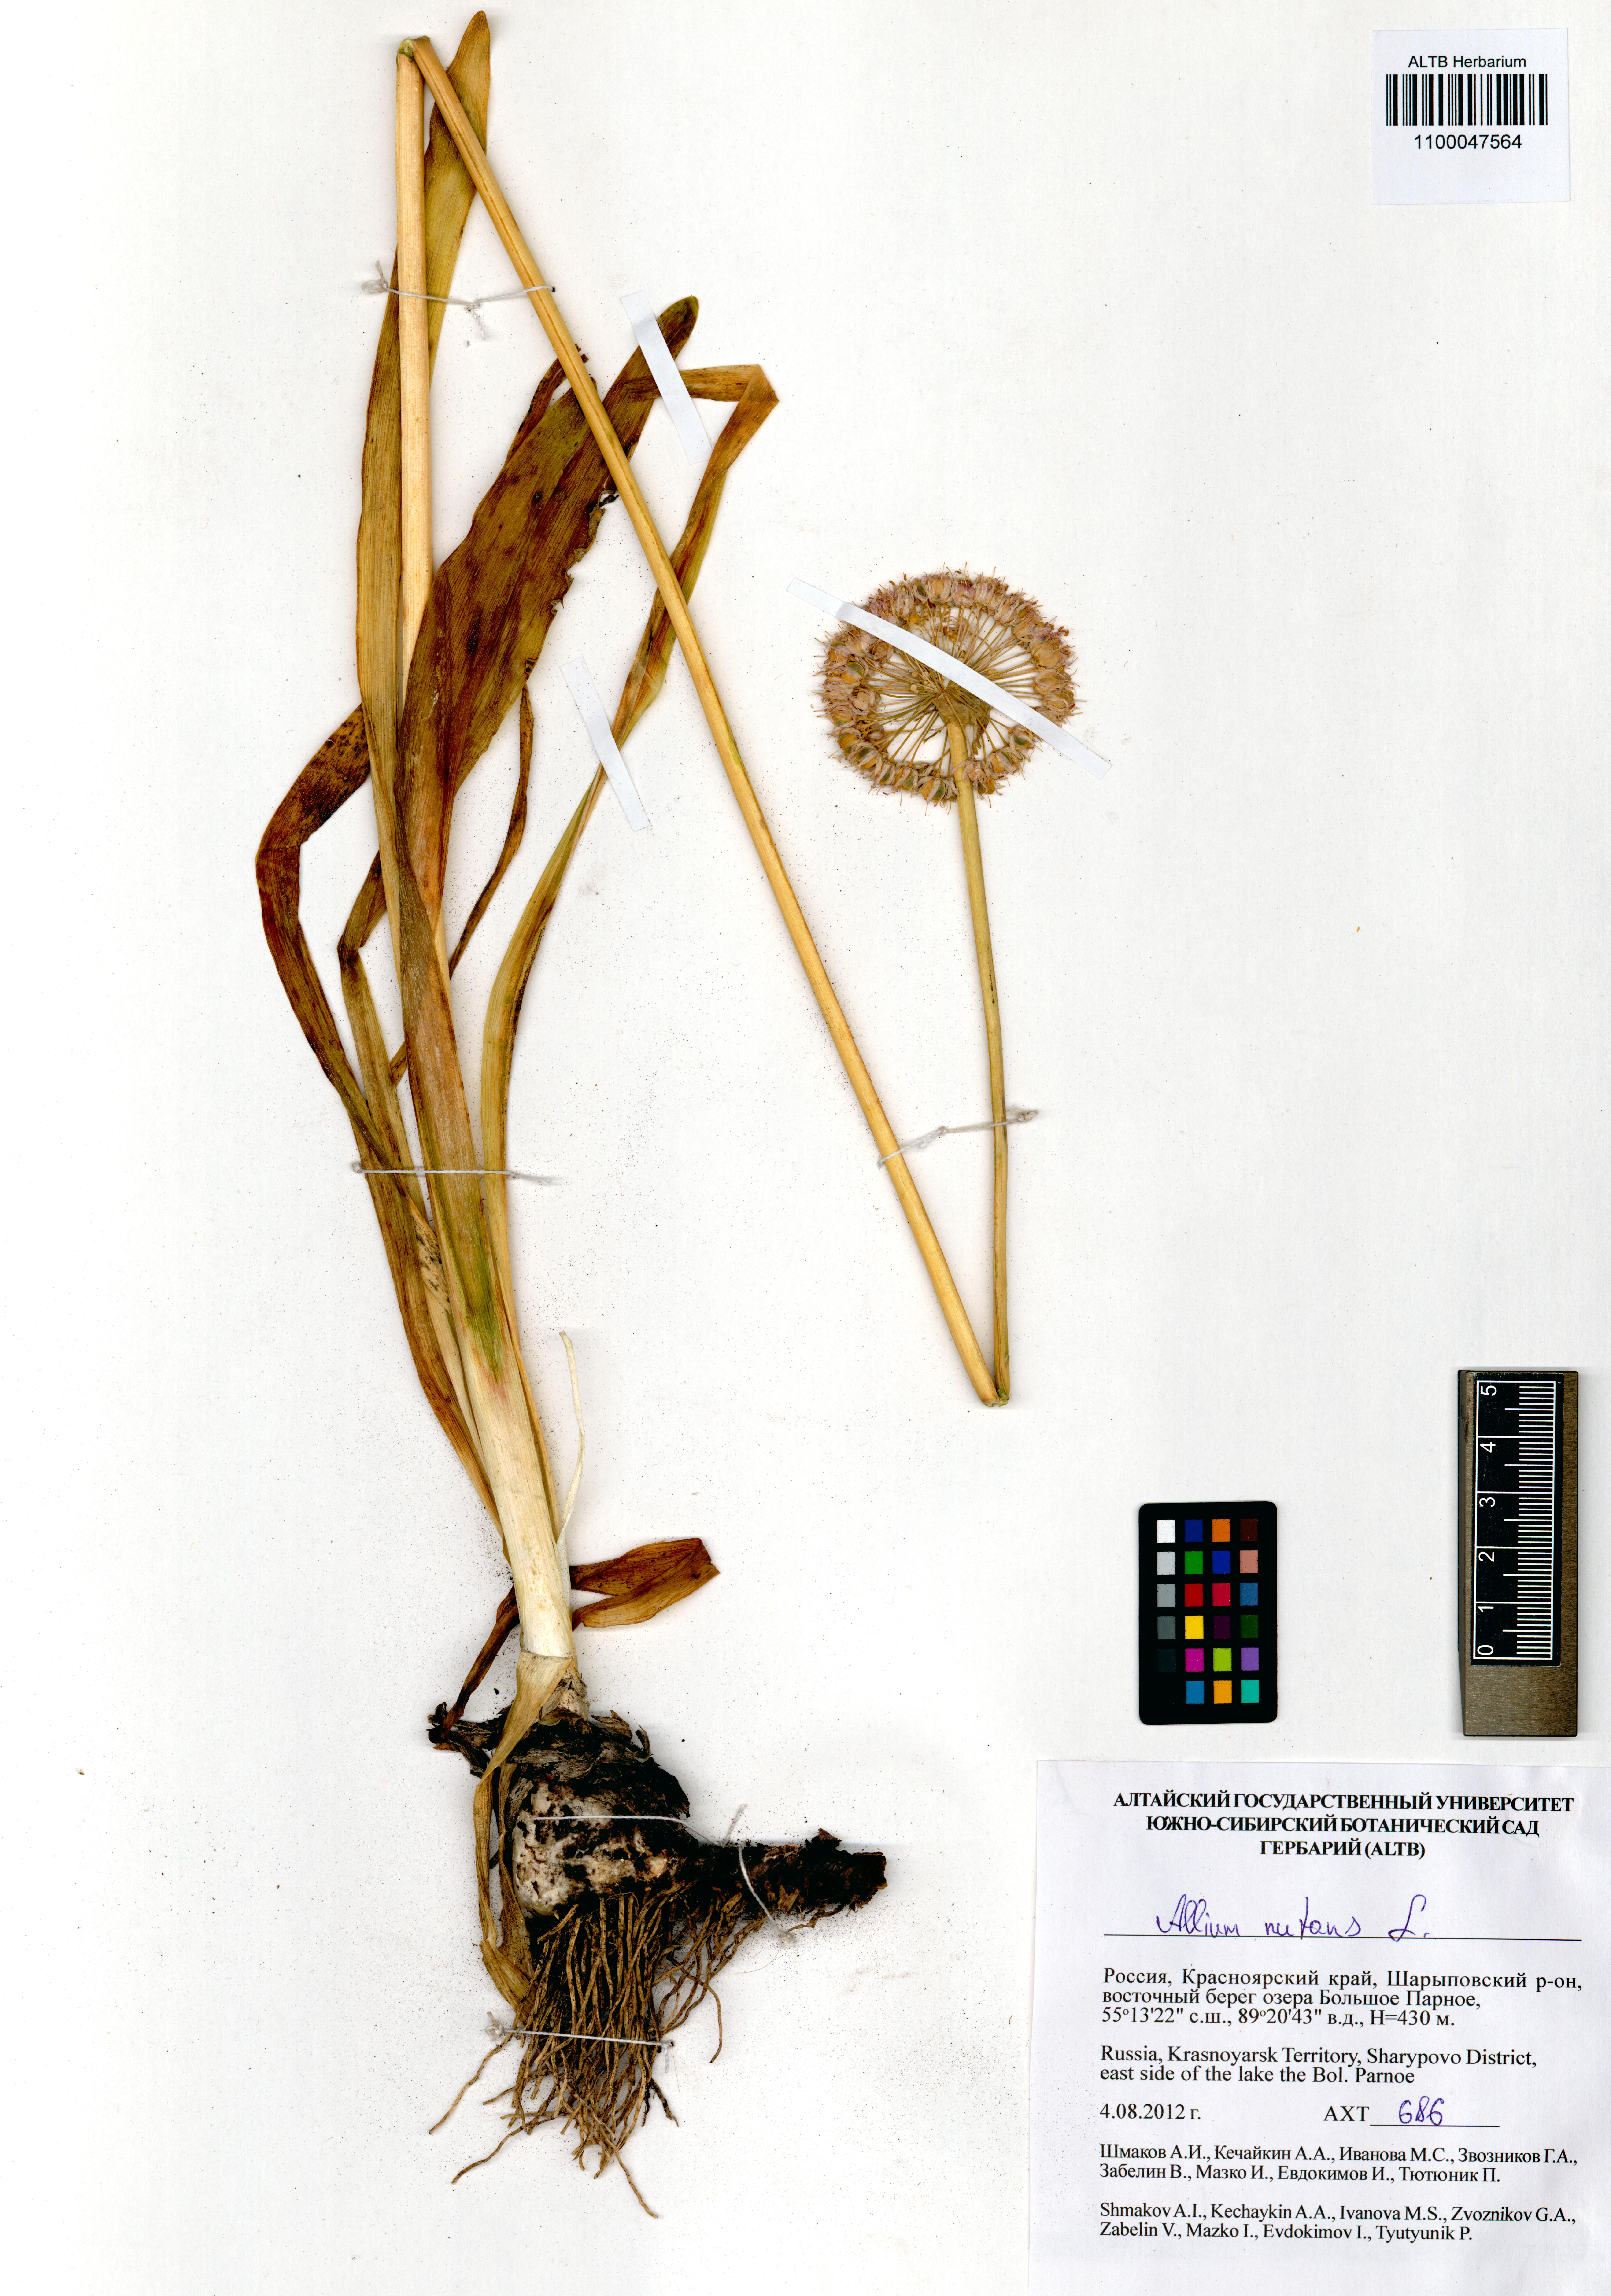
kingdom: Plantae
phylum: Tracheophyta
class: Liliopsida
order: Asparagales
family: Amaryllidaceae
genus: Allium
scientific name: Allium nutans
